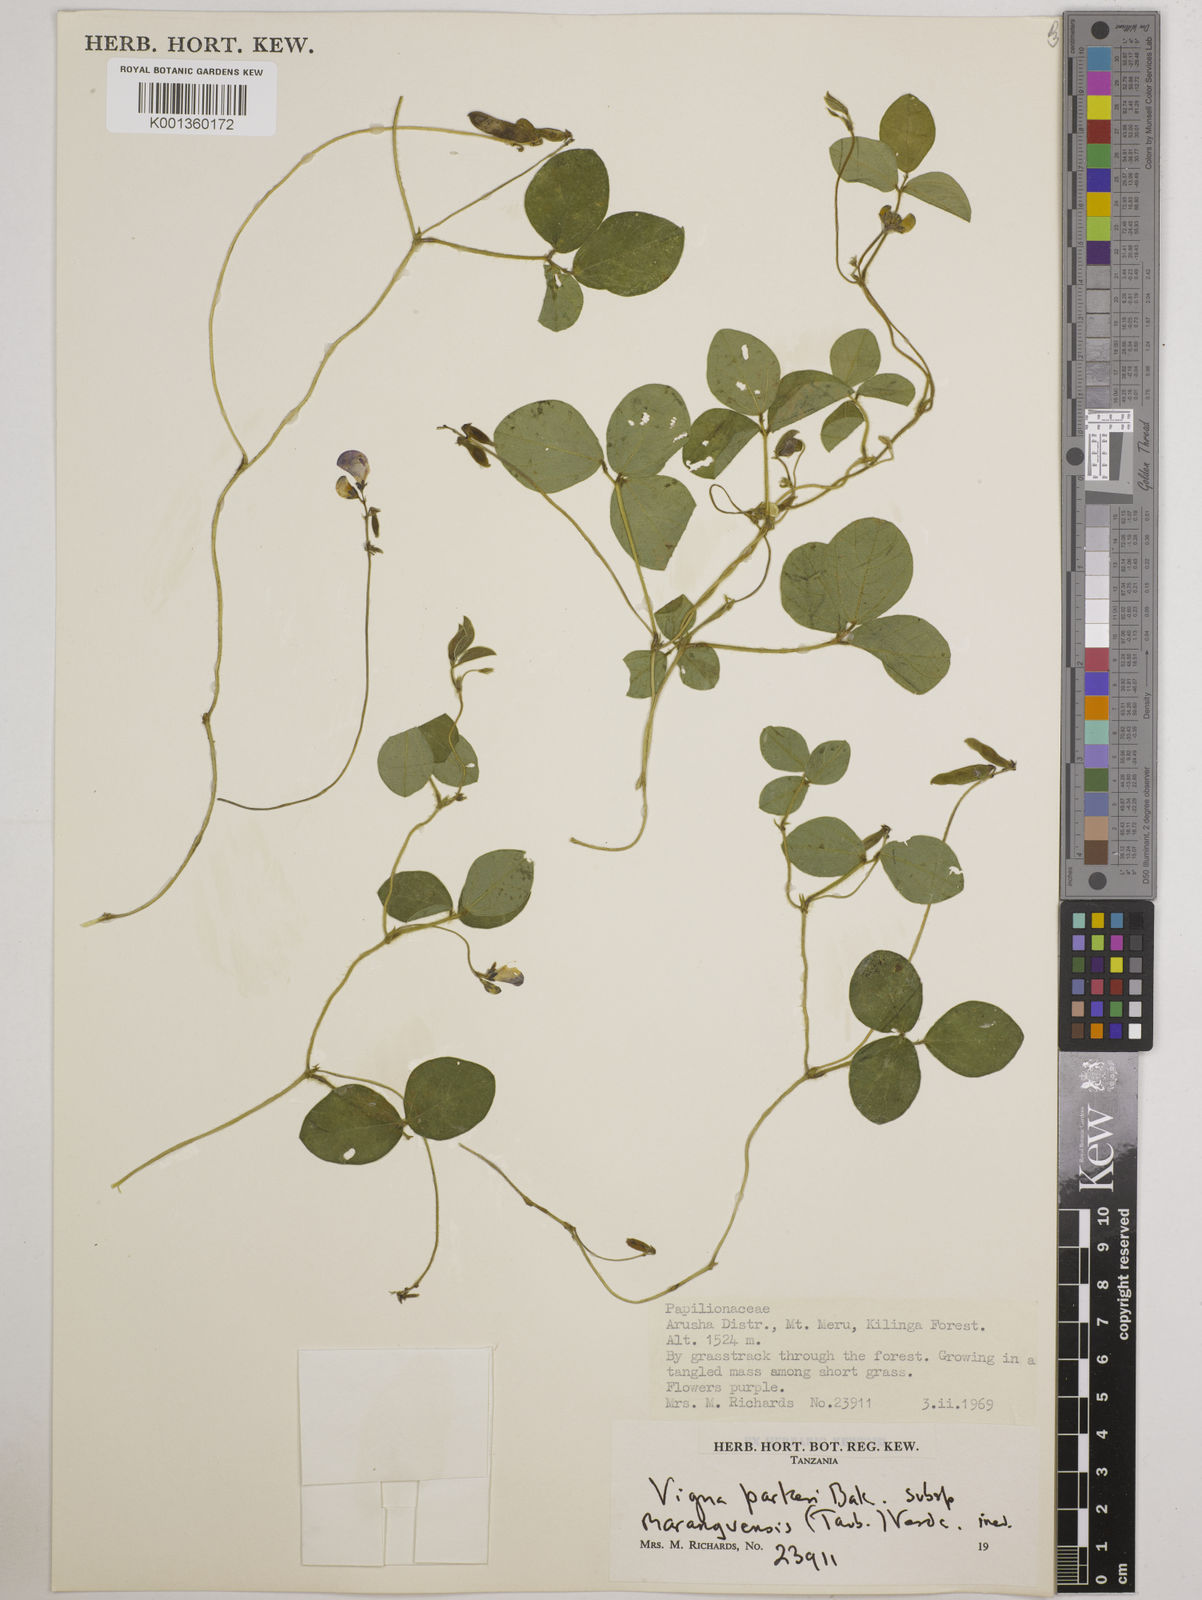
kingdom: Plantae
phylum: Tracheophyta
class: Magnoliopsida
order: Fabales
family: Fabaceae
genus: Vigna
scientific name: Vigna
